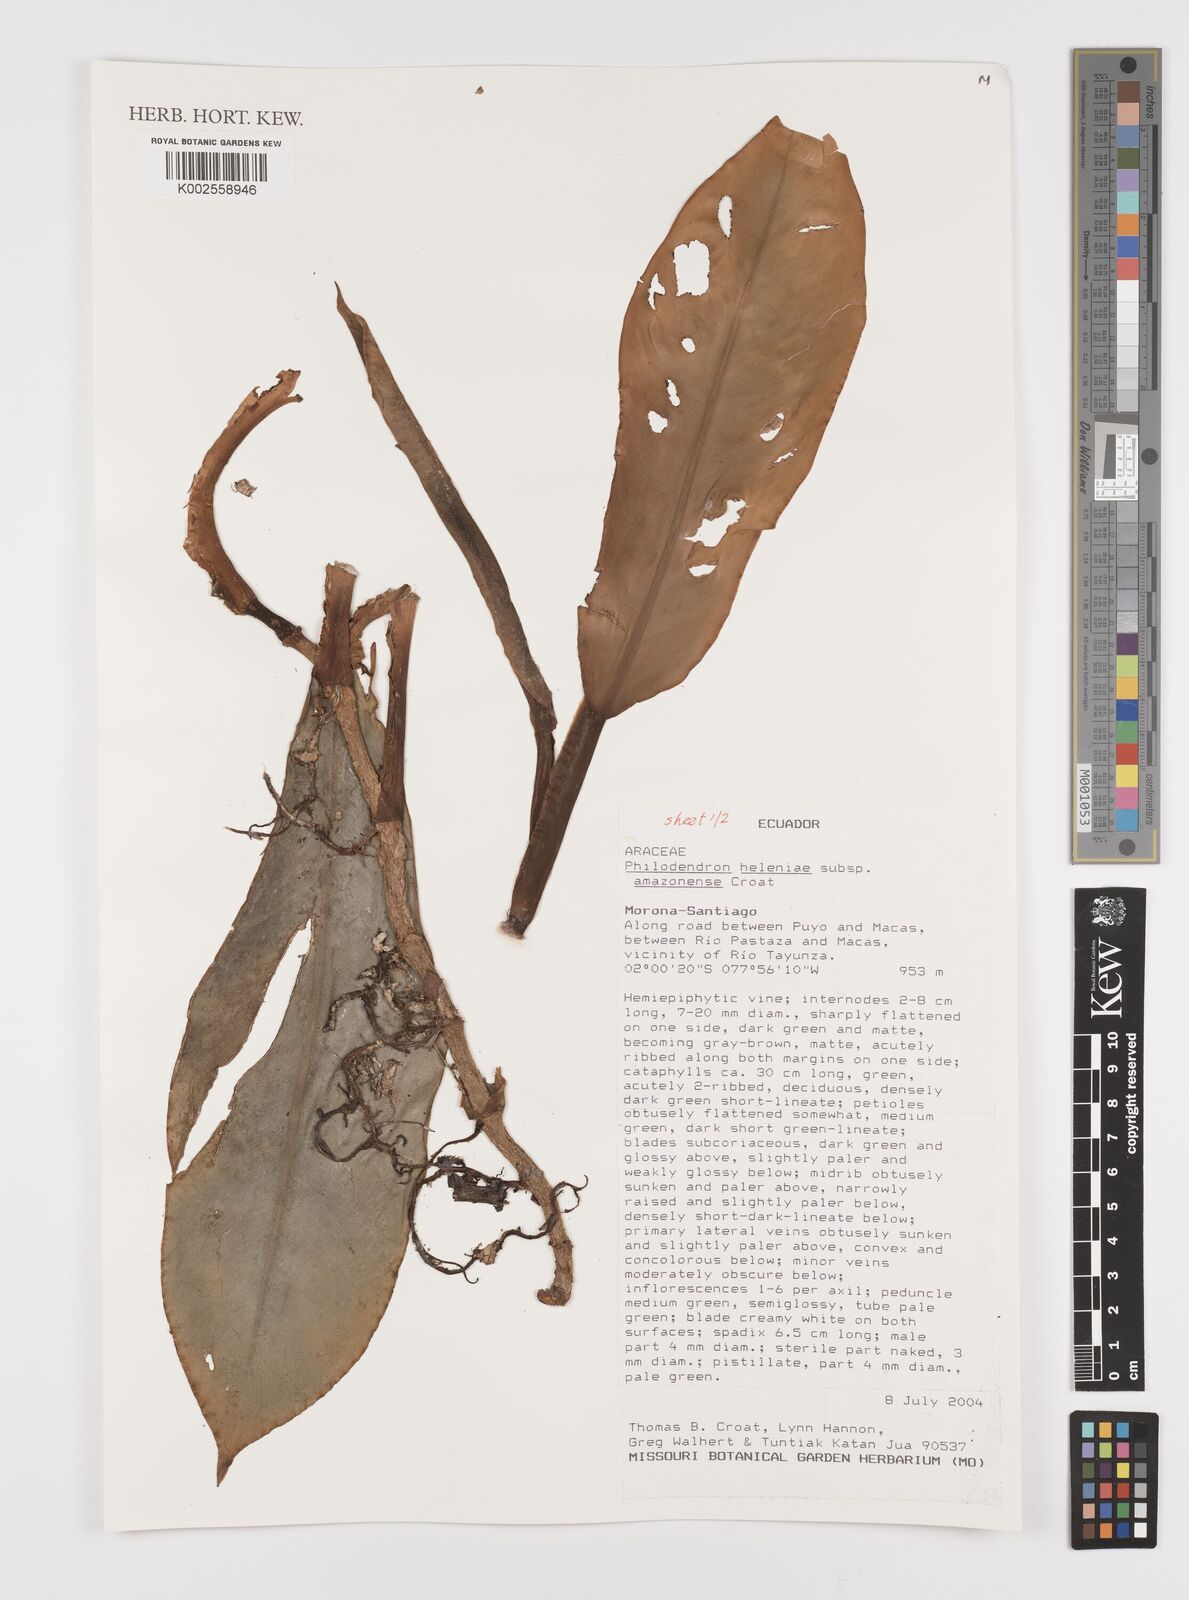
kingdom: Plantae
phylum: Tracheophyta
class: Liliopsida
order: Alismatales
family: Araceae
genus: Philodendron
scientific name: Philodendron heleniae
